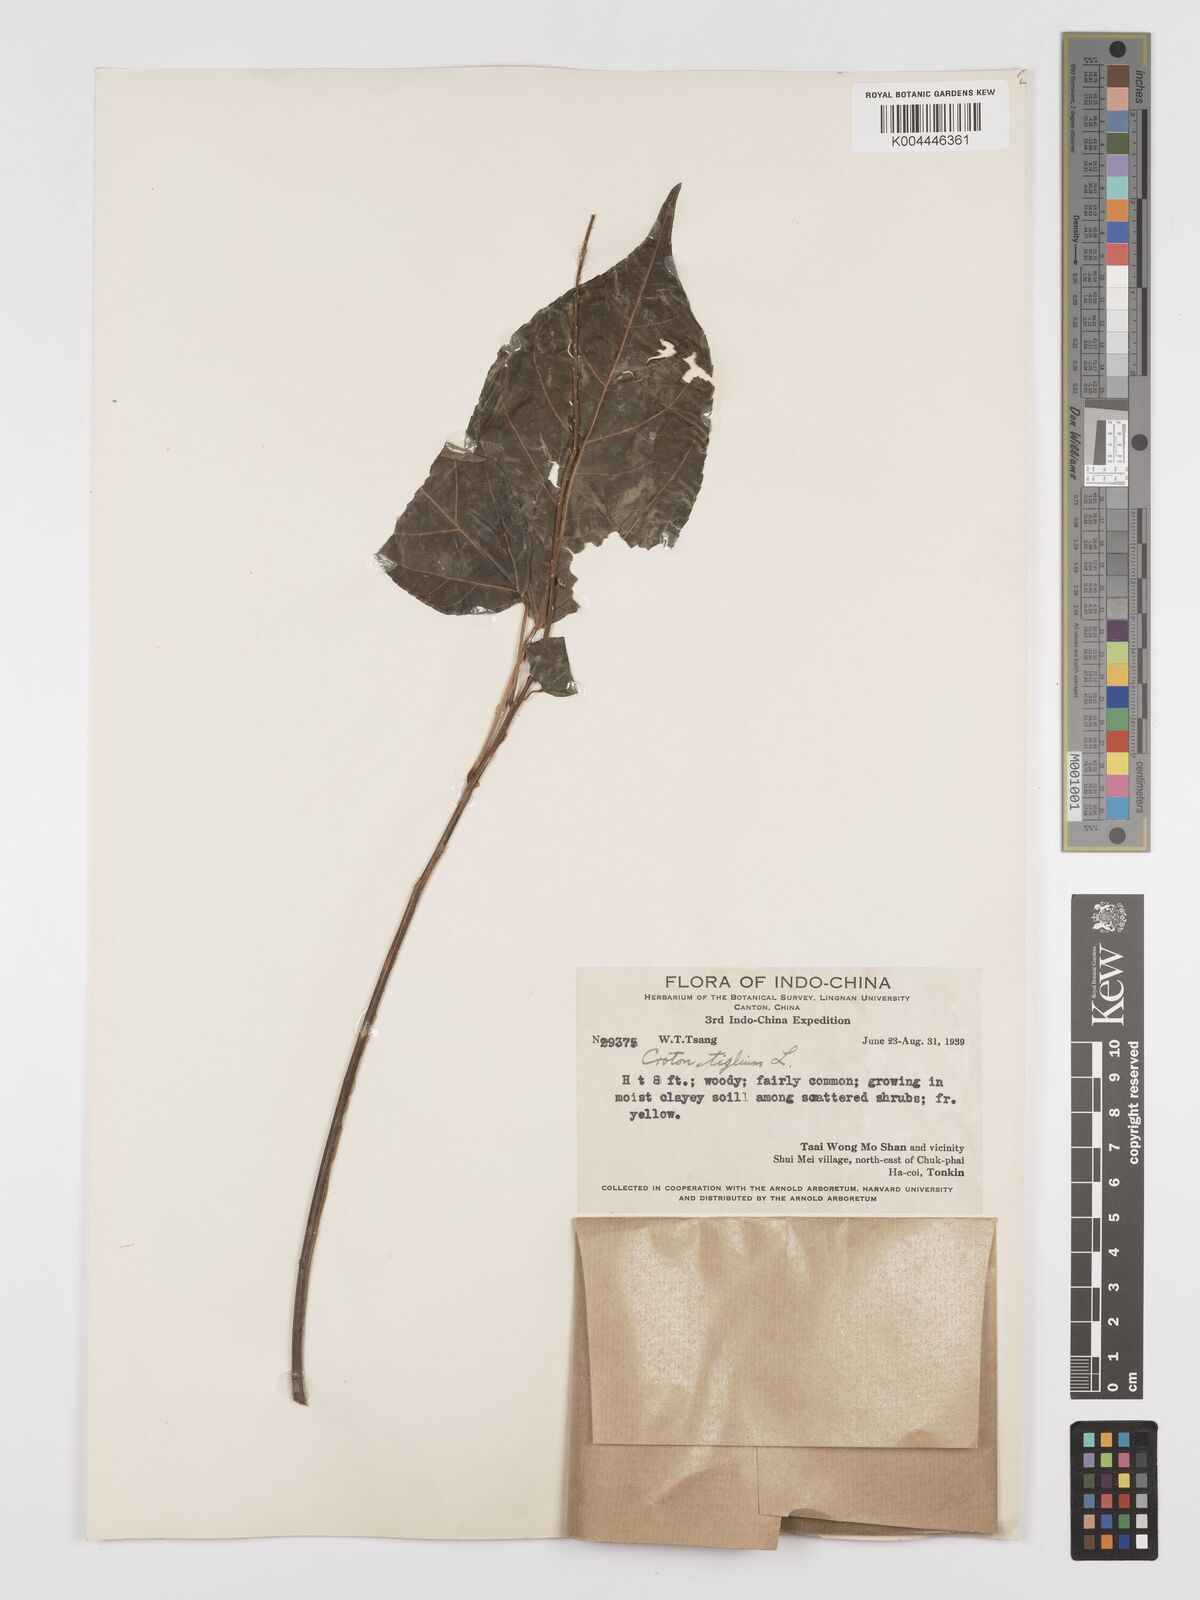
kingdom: Plantae
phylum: Tracheophyta
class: Magnoliopsida
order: Malpighiales
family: Euphorbiaceae
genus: Croton
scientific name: Croton tiglium
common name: Purging croton
